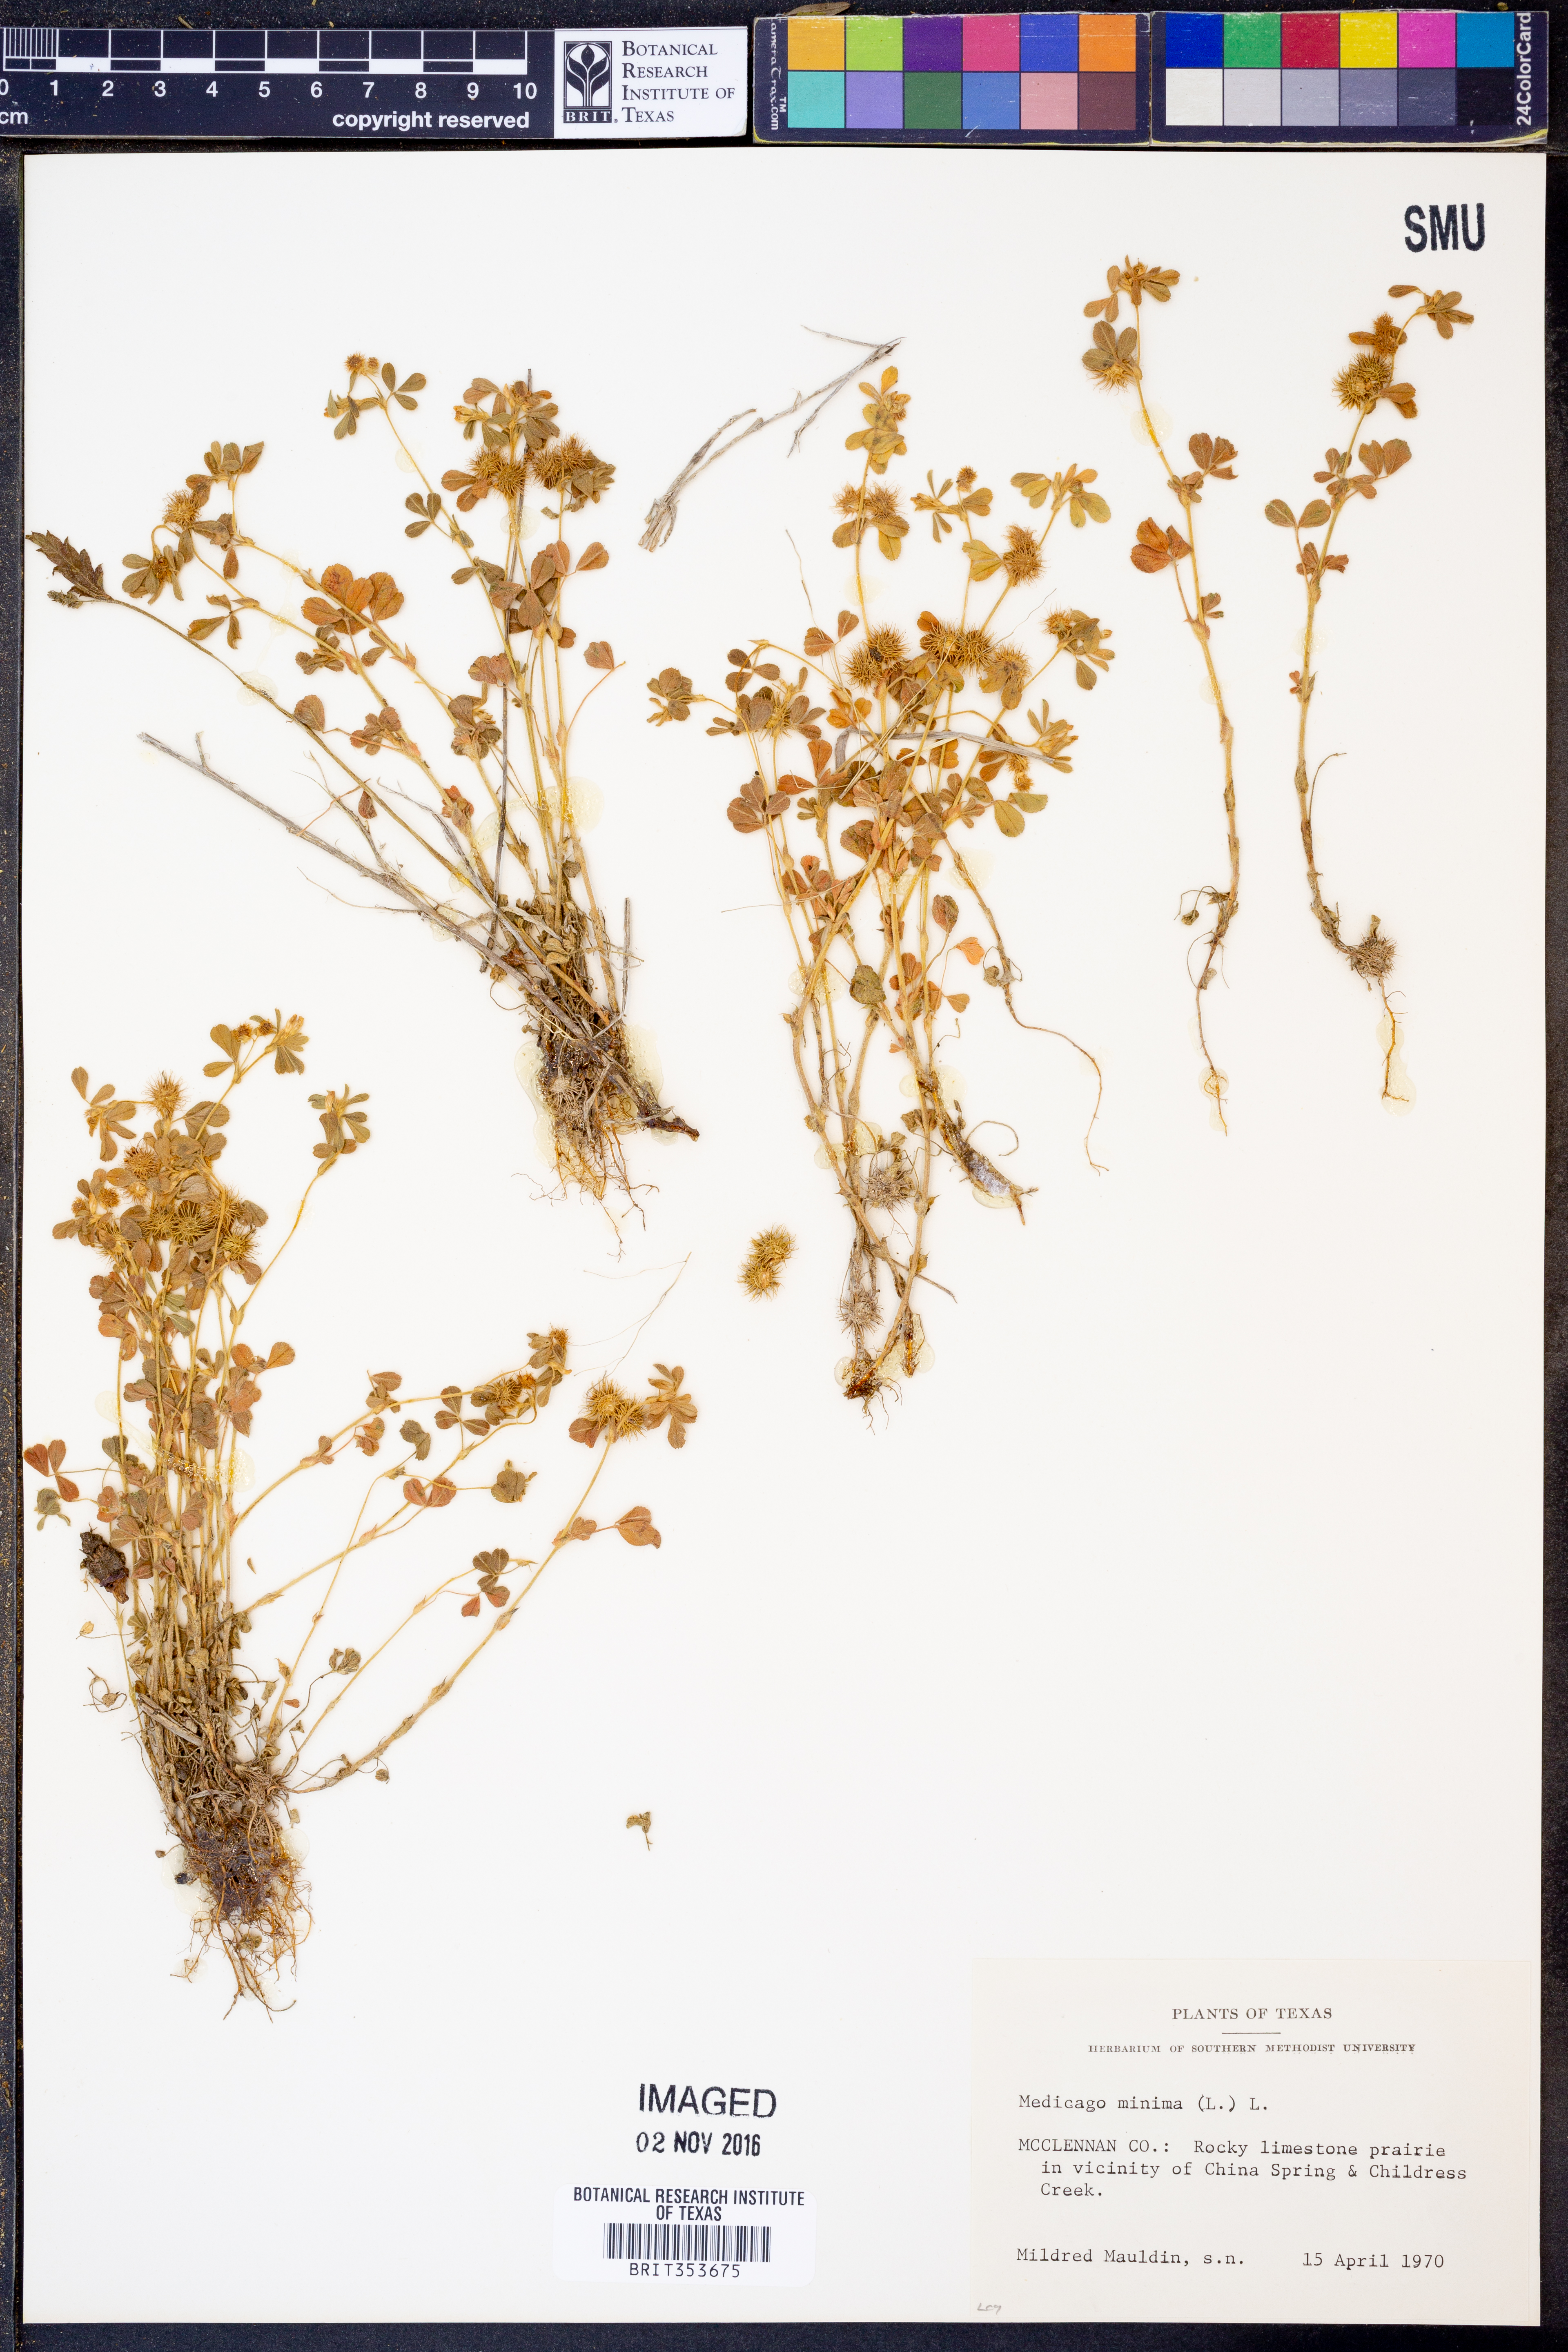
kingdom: Plantae
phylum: Tracheophyta
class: Magnoliopsida
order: Fabales
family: Fabaceae
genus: Medicago
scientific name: Medicago minima
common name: Little bur-clover
